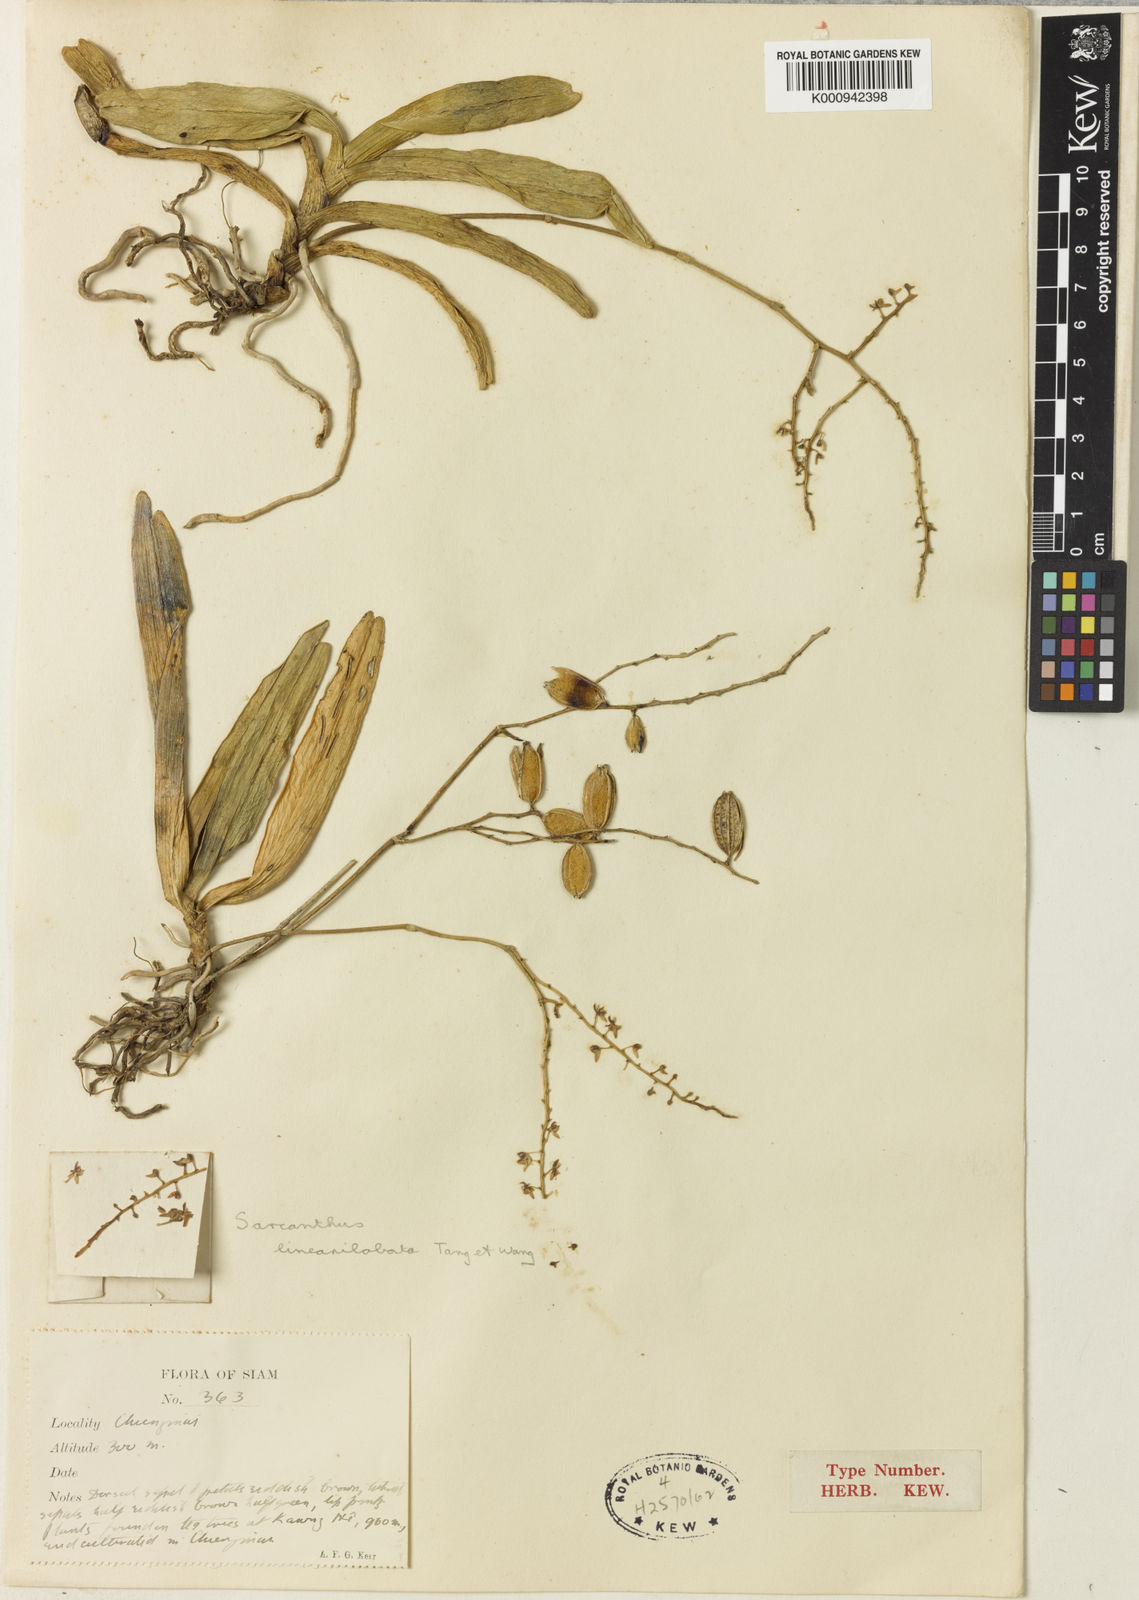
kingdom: Plantae
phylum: Tracheophyta
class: Liliopsida
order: Asparagales
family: Orchidaceae
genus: Cleisostoma
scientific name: Cleisostoma linearilobatum
